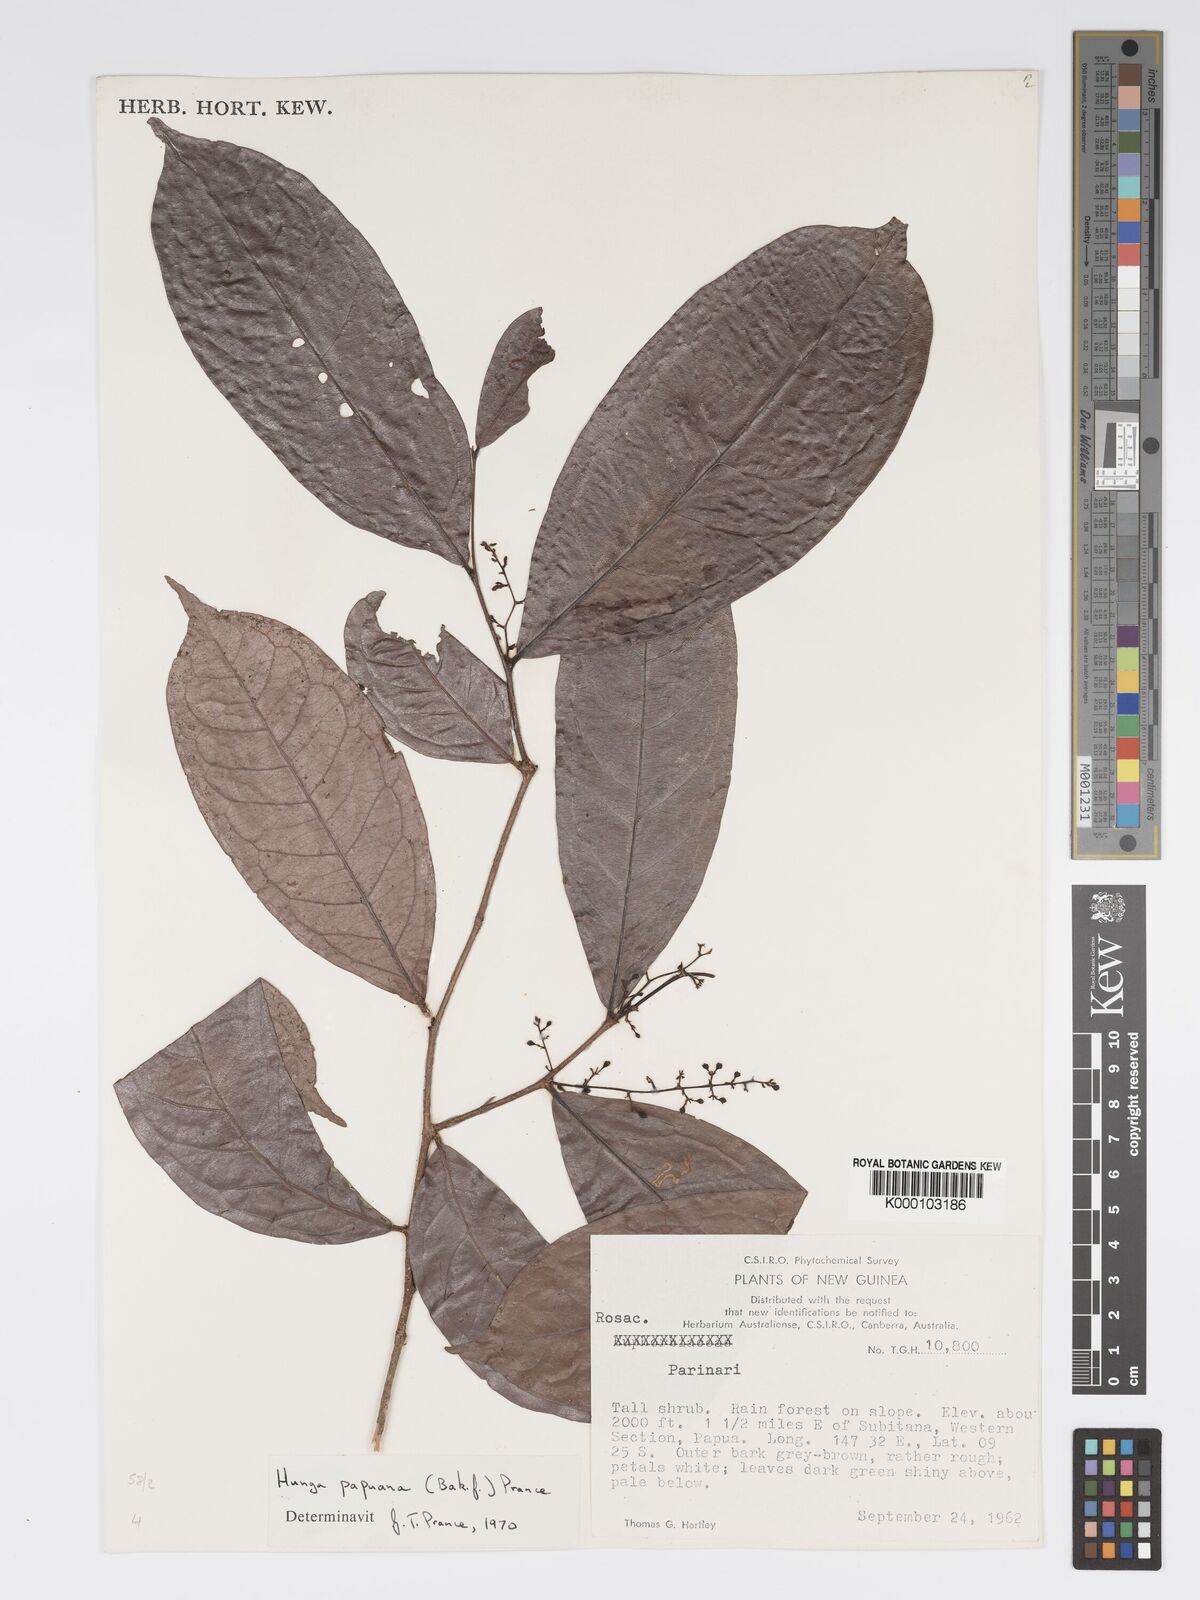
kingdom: Plantae
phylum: Tracheophyta
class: Magnoliopsida
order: Malpighiales
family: Chrysobalanaceae
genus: Hunga
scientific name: Hunga papuana
